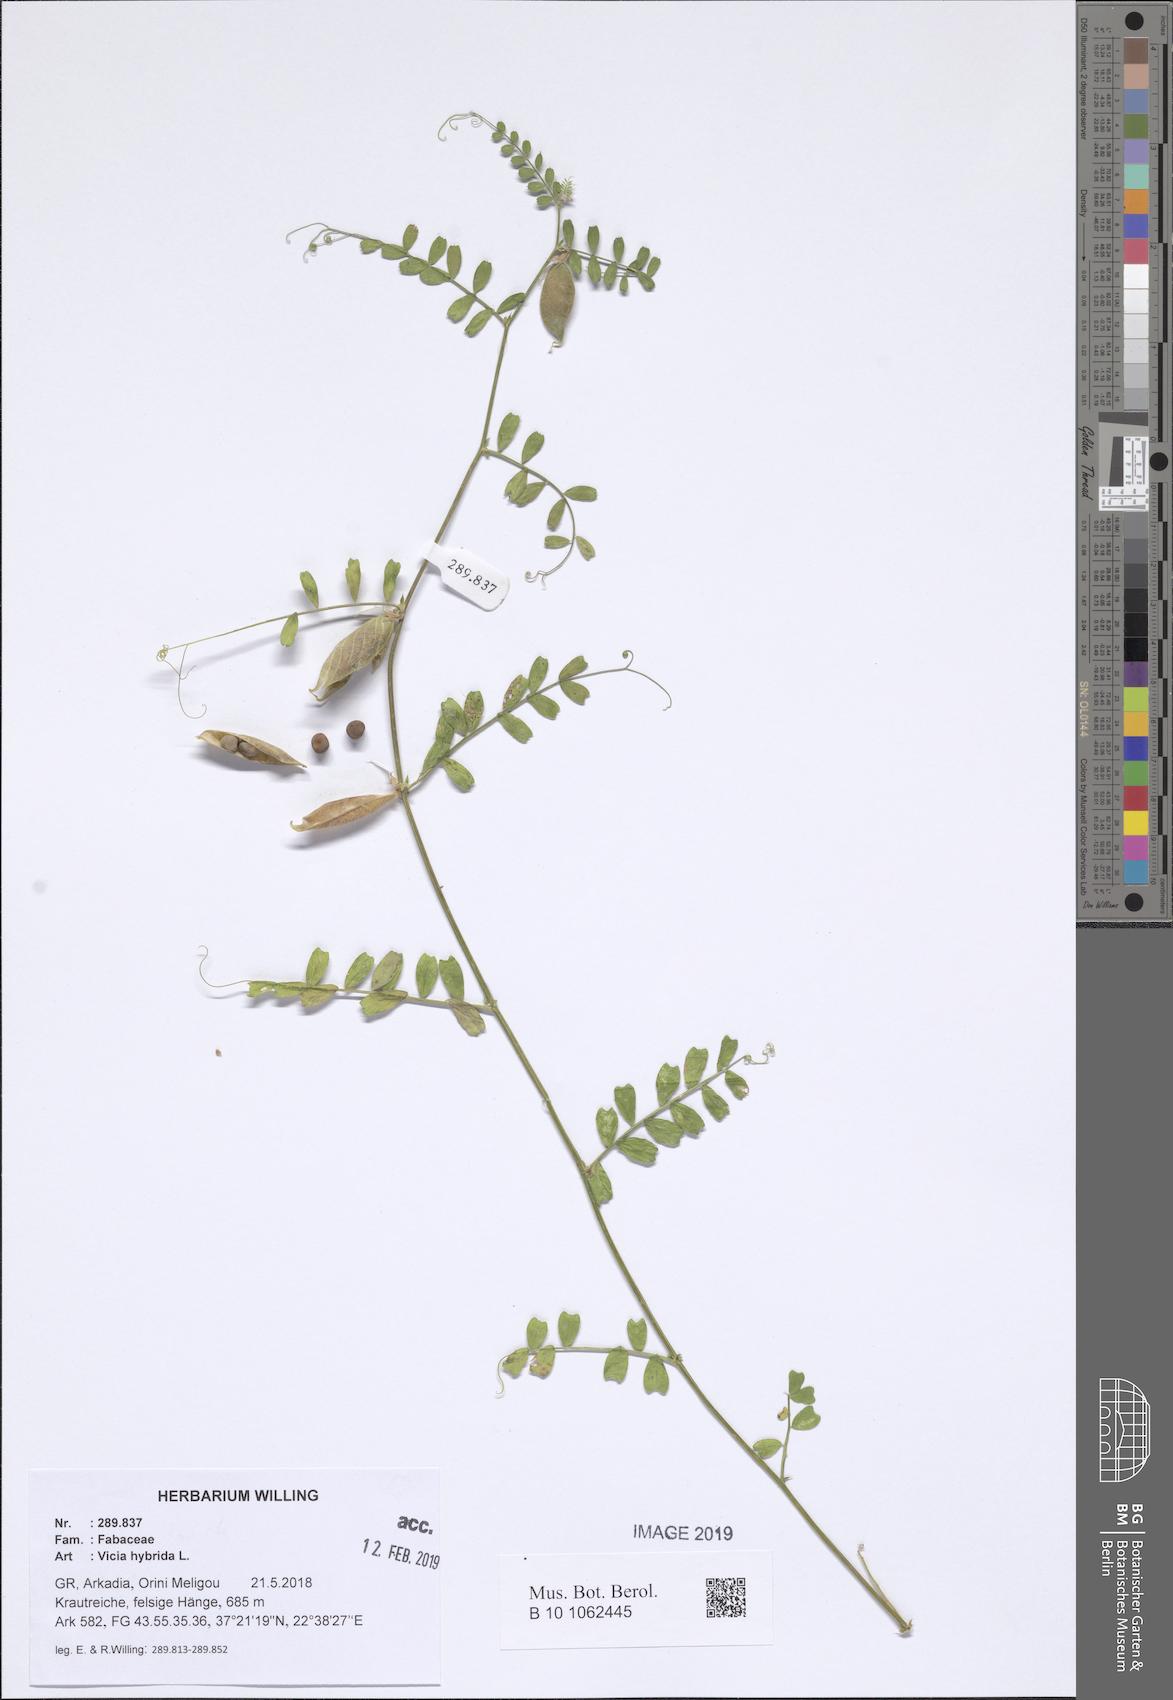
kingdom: Plantae
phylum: Tracheophyta
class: Magnoliopsida
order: Fabales
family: Fabaceae
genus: Vicia
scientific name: Vicia hybrida
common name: Hairy yellow vetch
